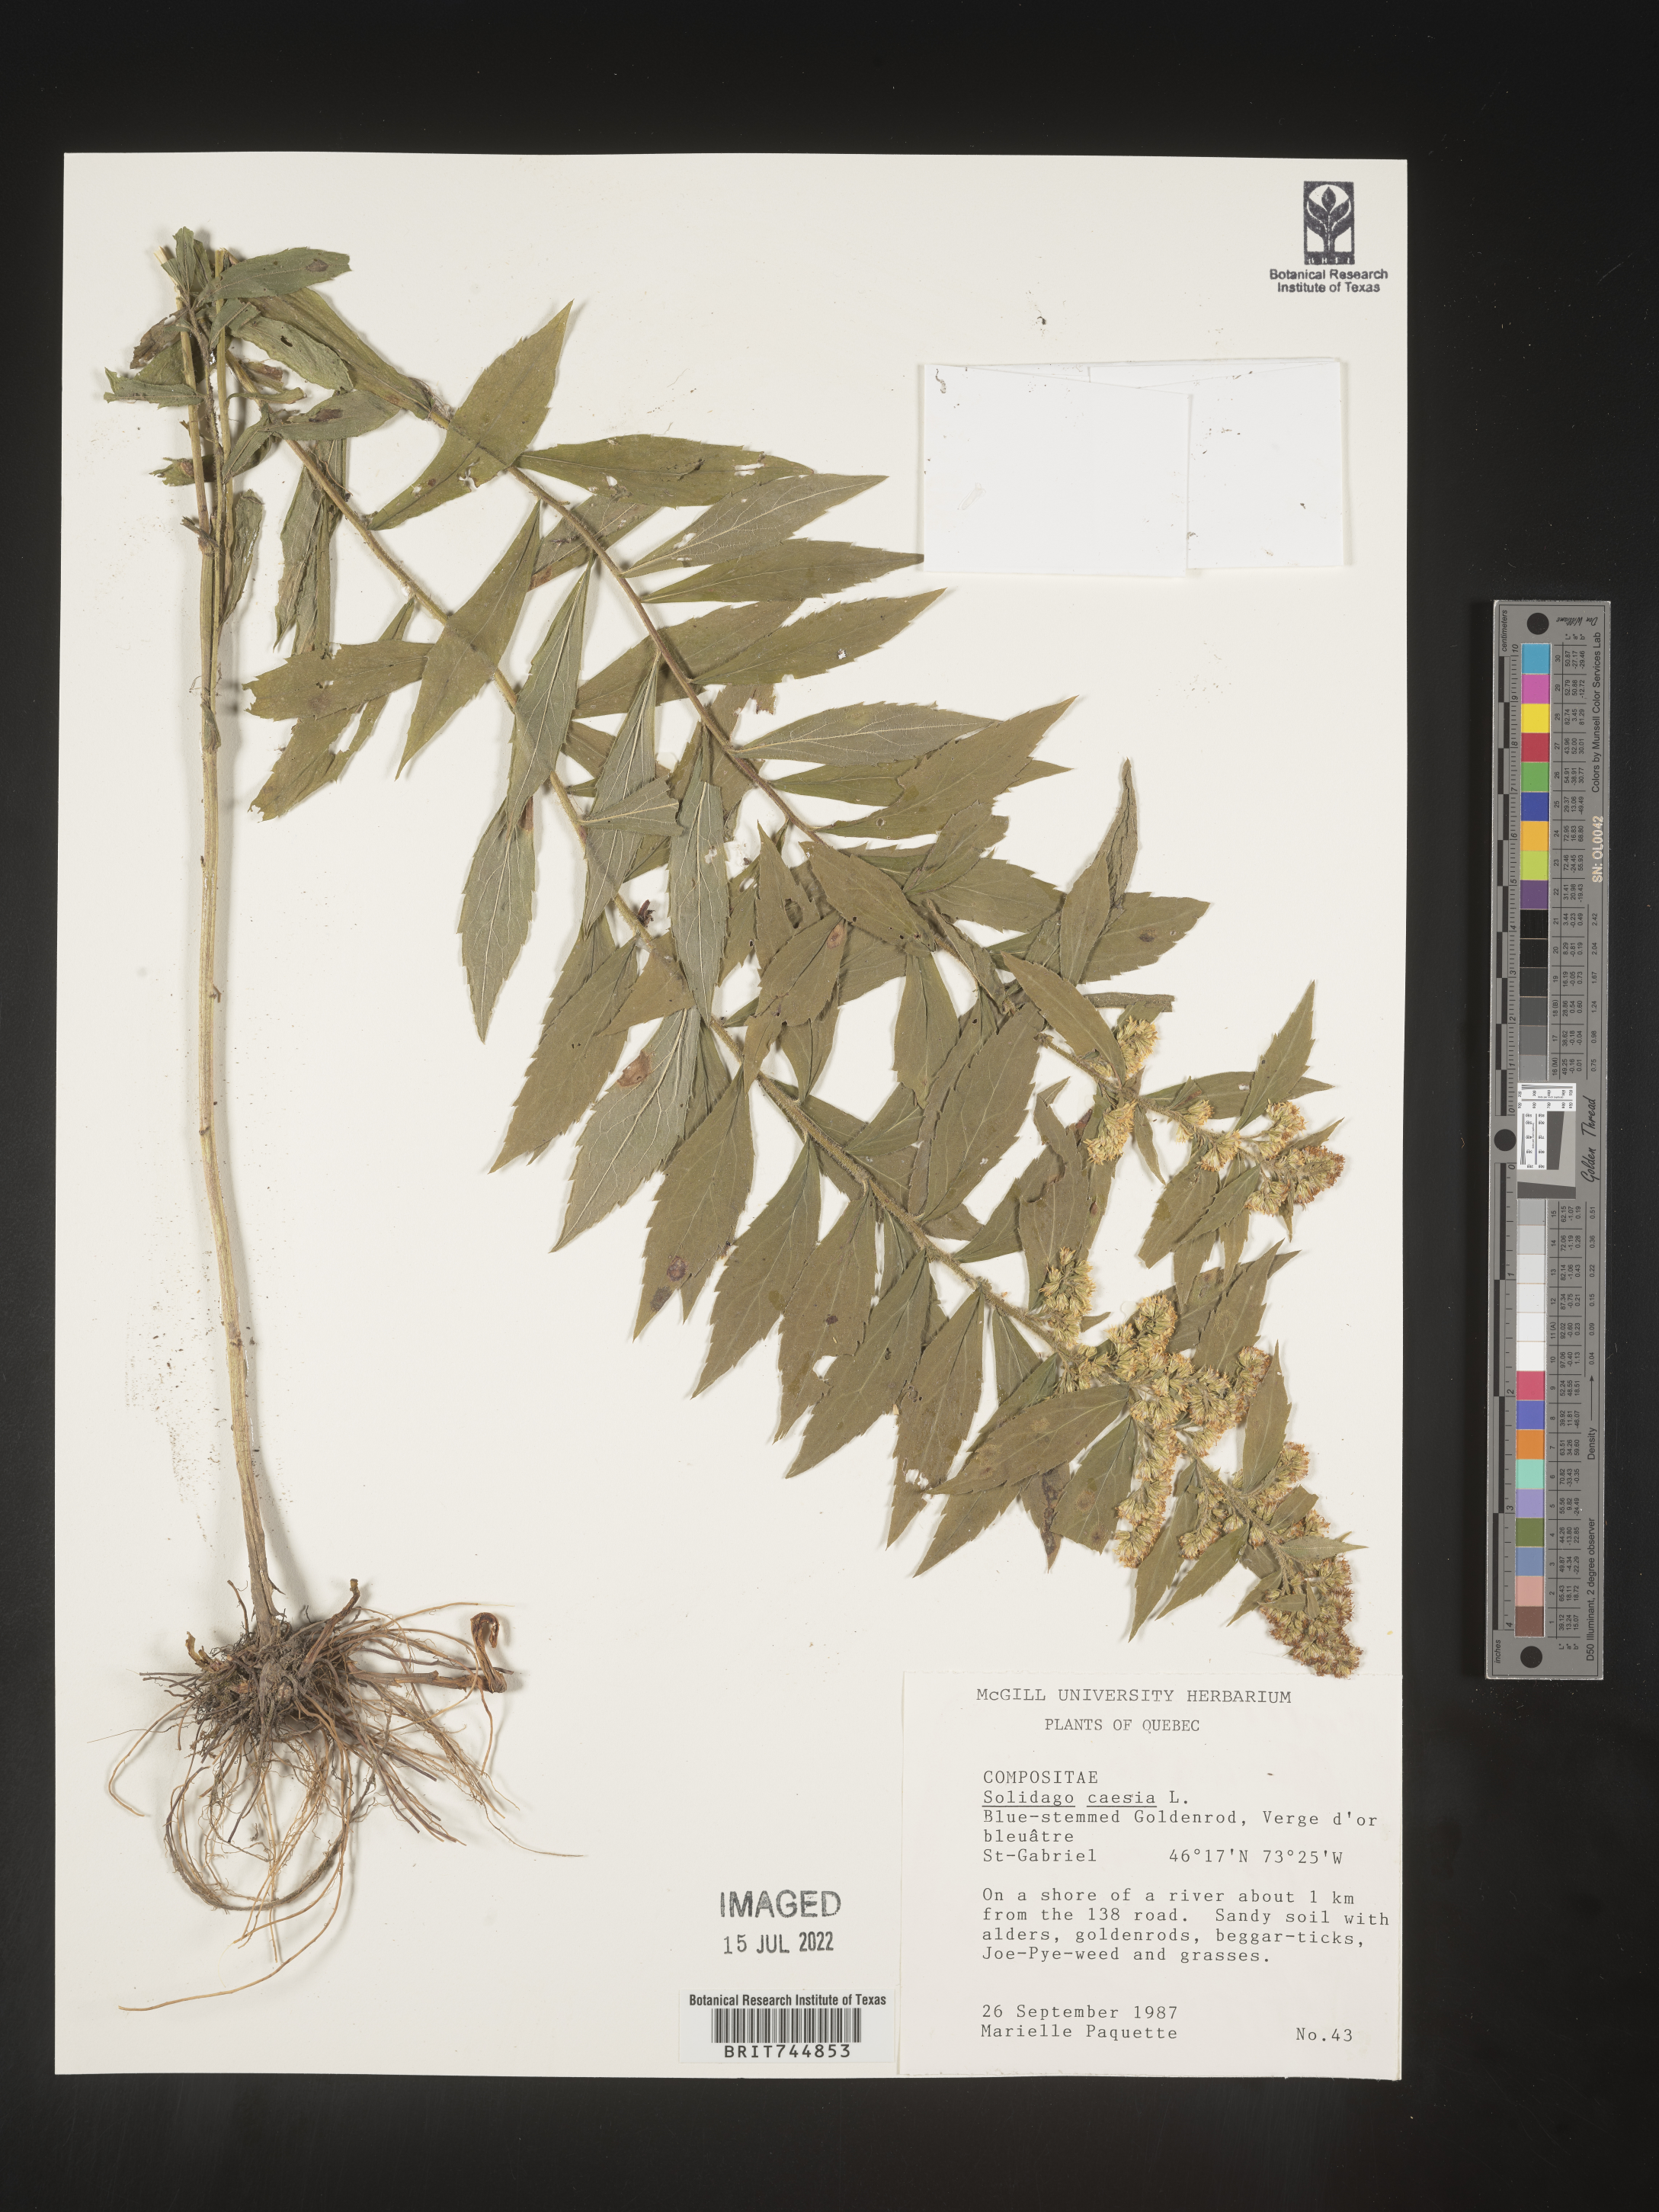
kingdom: Plantae
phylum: Tracheophyta
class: Magnoliopsida
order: Asterales
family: Asteraceae
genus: Solidago
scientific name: Solidago caesia
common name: Woodland goldenrod
